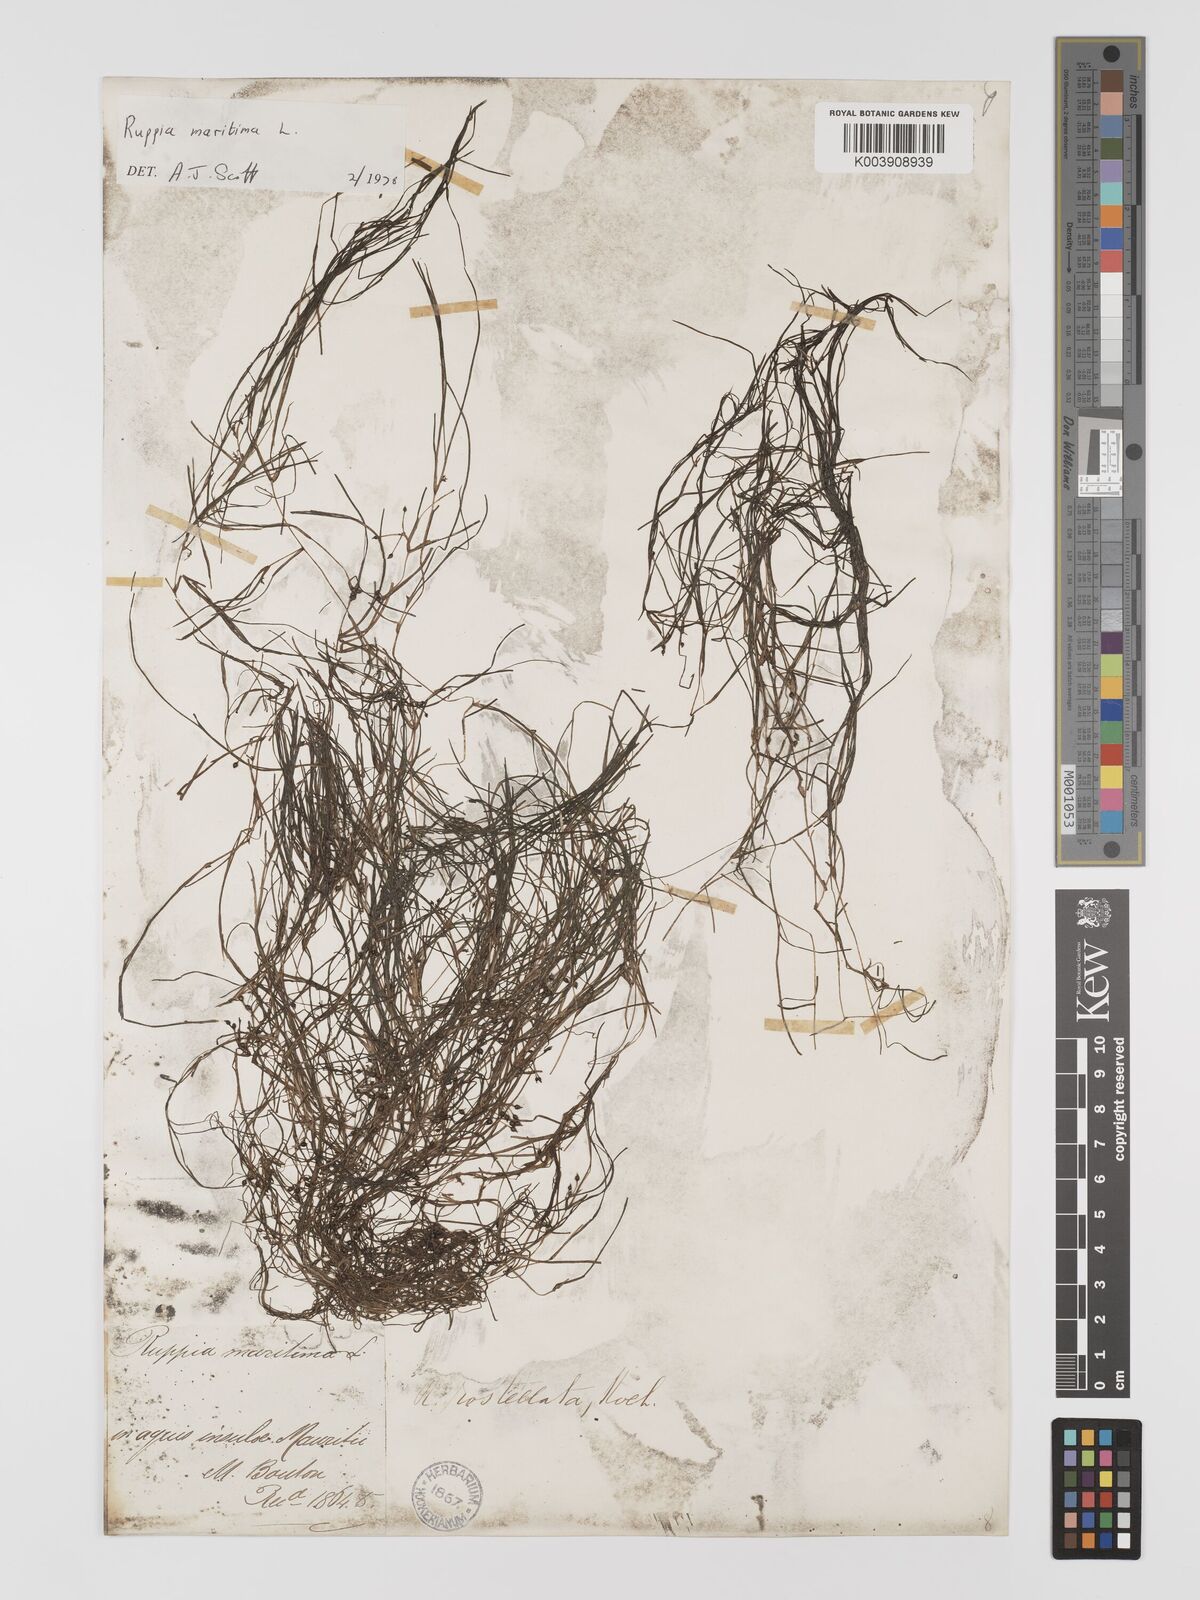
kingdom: Plantae
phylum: Tracheophyta
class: Liliopsida
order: Alismatales
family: Ruppiaceae
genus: Ruppia
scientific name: Ruppia maritima
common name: Beaked tasselweed
